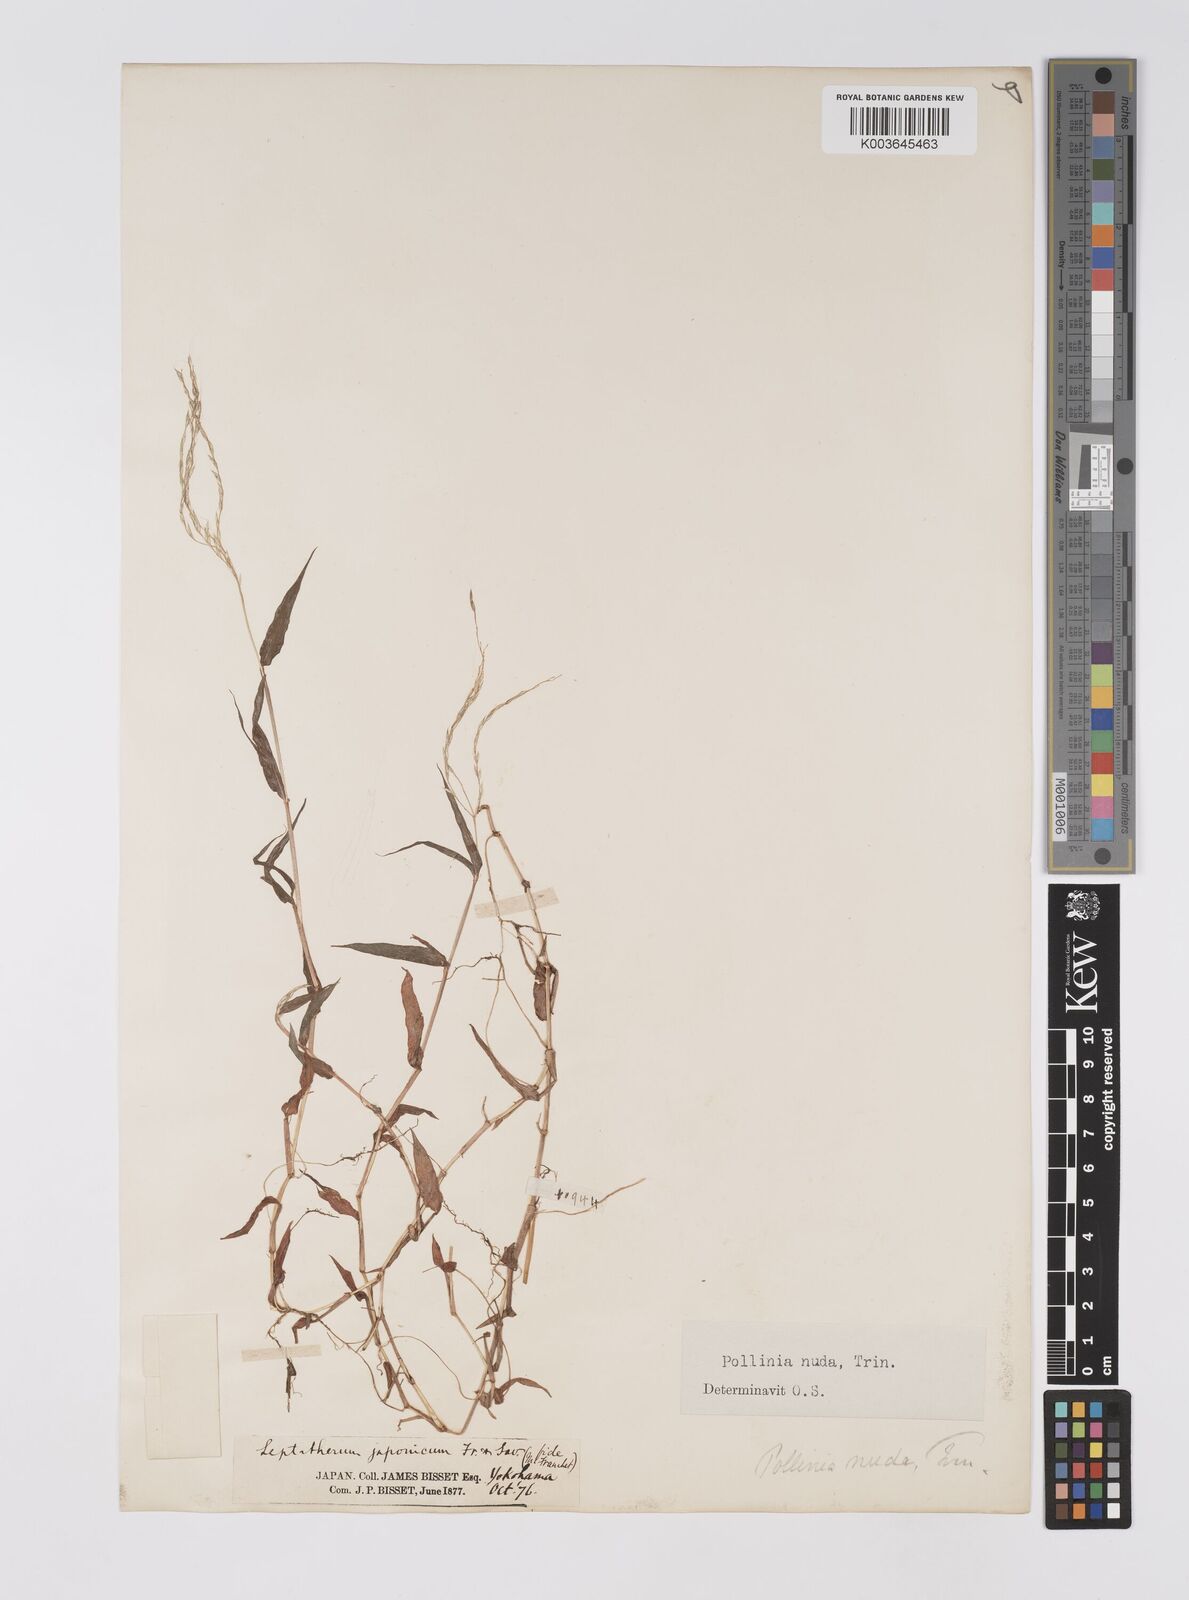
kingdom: Plantae
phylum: Tracheophyta
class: Liliopsida
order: Poales
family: Poaceae
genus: Microstegium
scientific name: Microstegium japonicum
